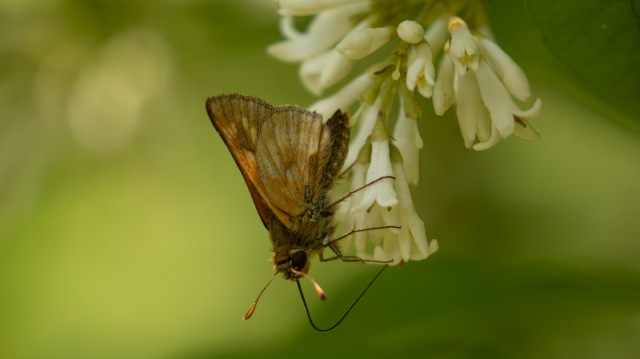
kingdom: Animalia
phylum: Arthropoda
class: Insecta
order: Lepidoptera
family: Hesperiidae
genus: Polites
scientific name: Polites
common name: Long Dash Skipper
